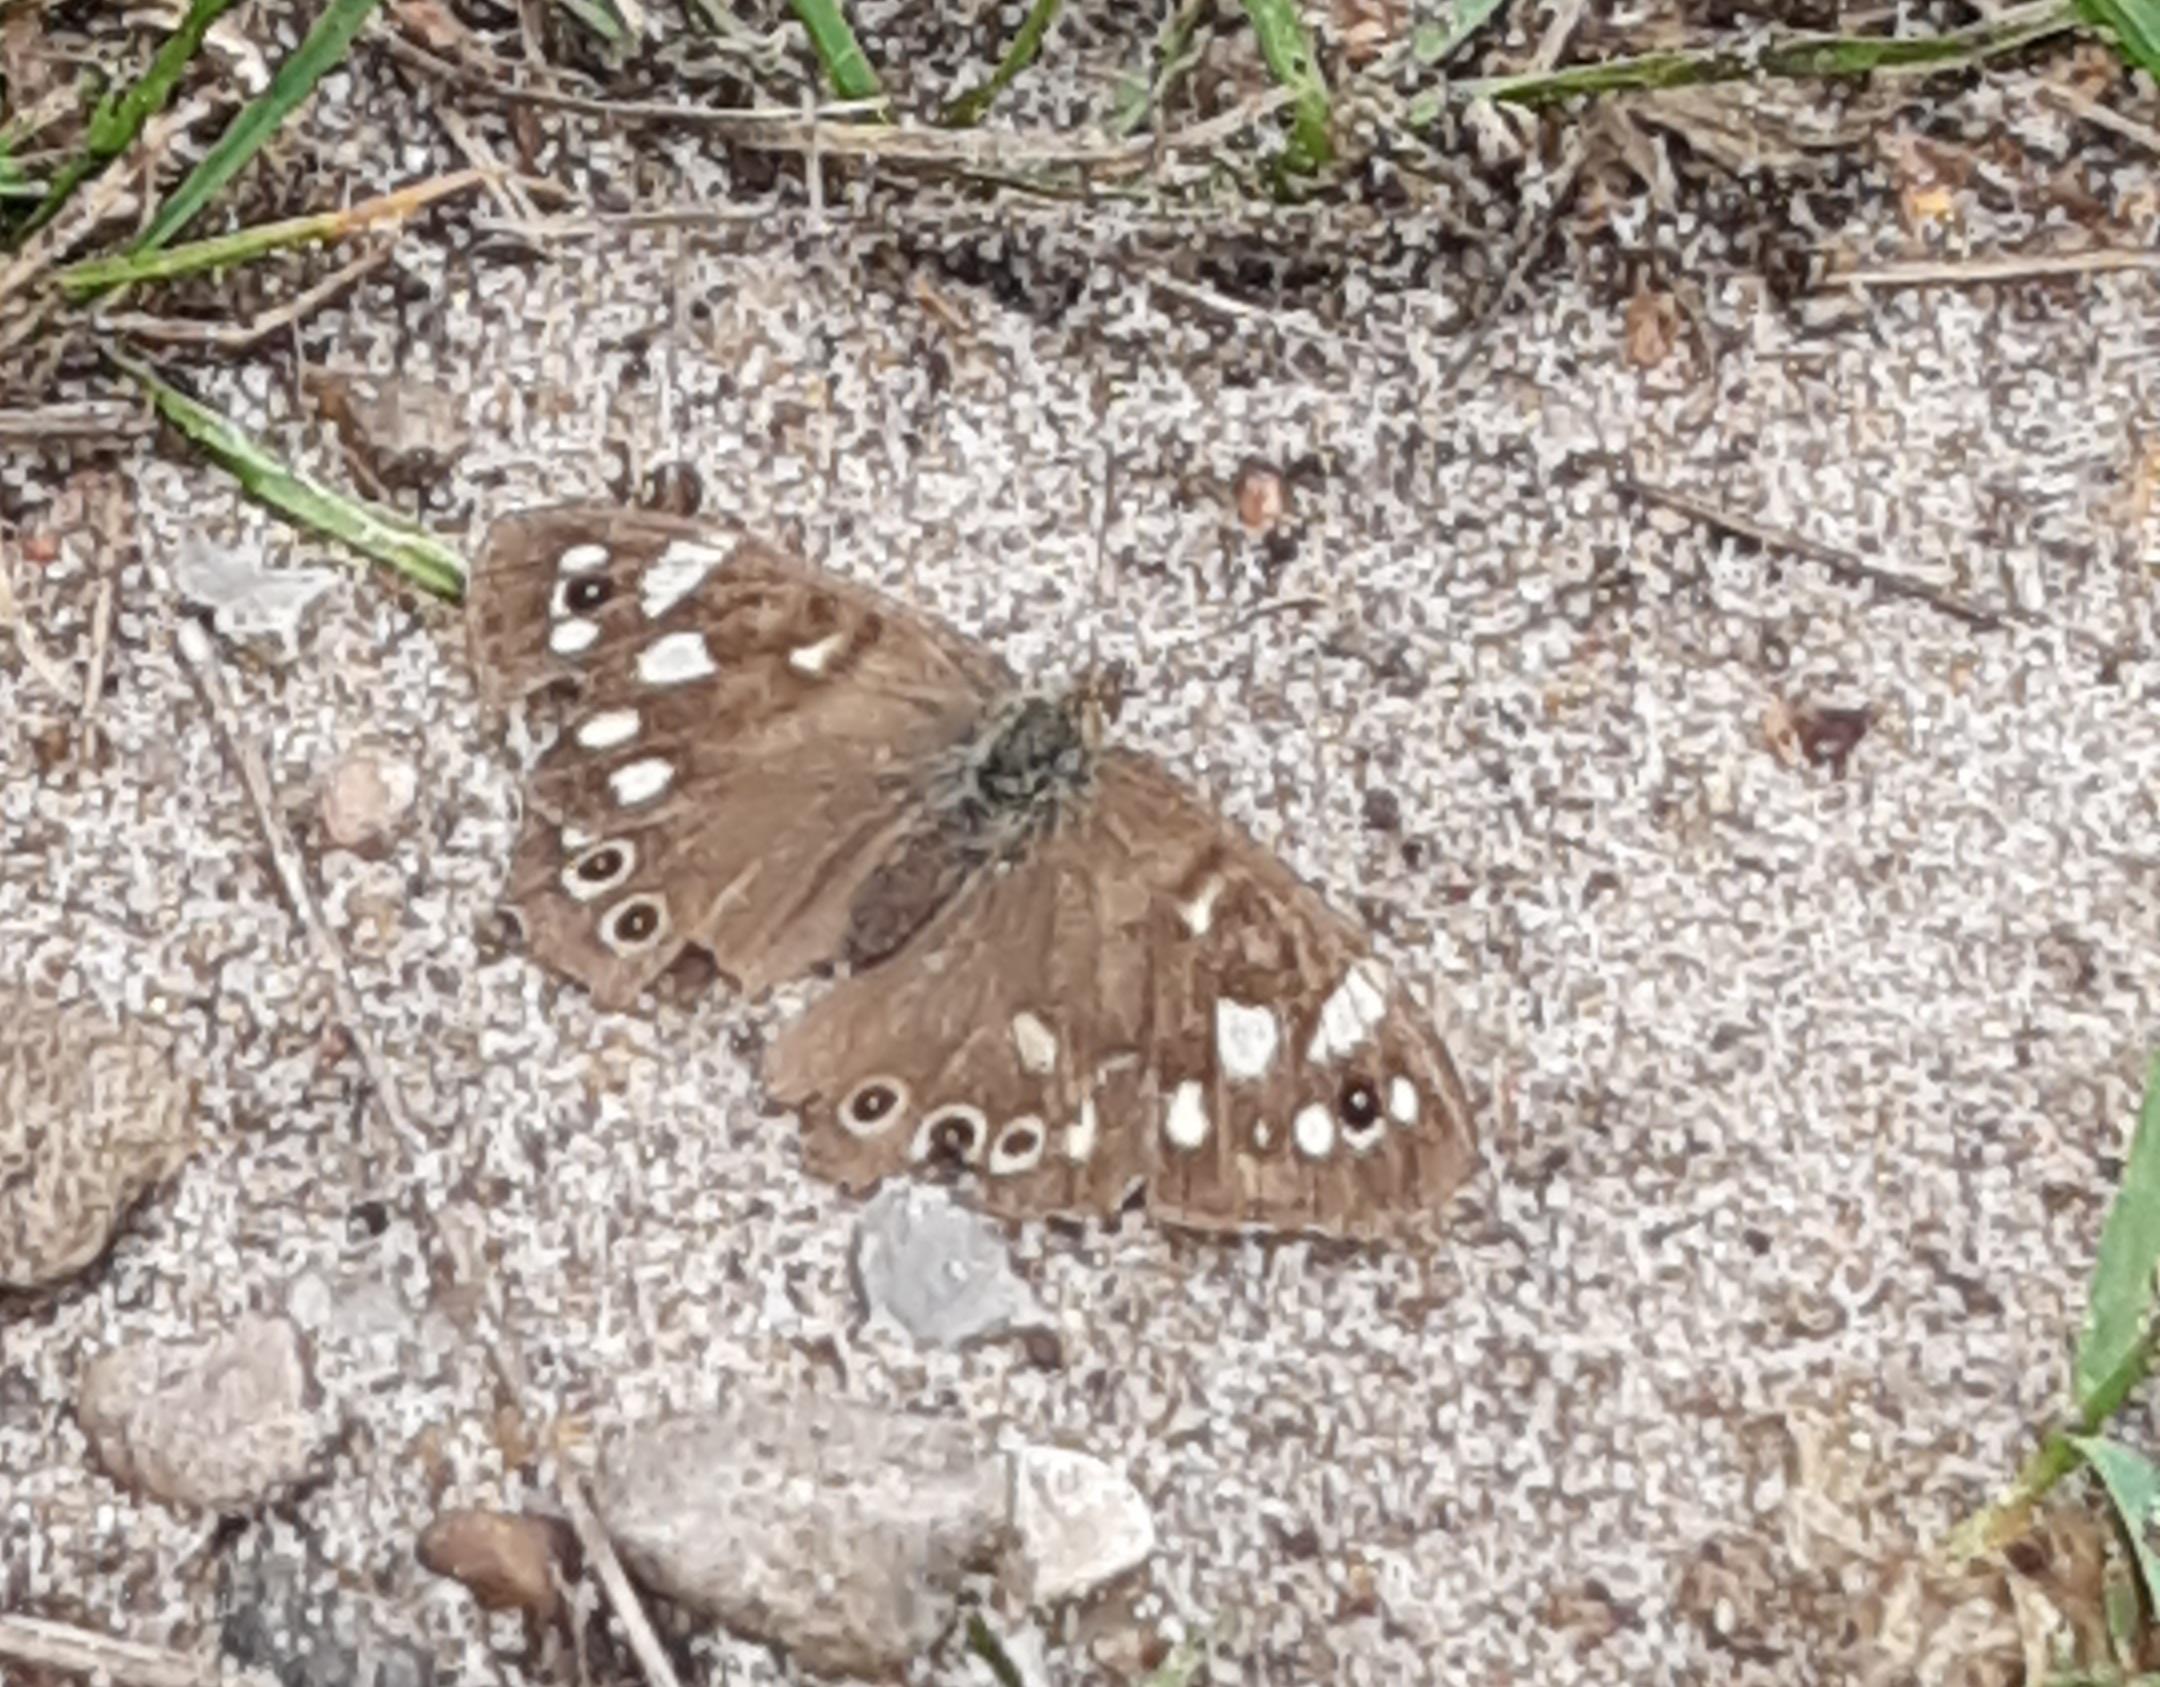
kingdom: Animalia
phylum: Arthropoda
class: Insecta
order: Lepidoptera
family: Nymphalidae
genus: Pararge
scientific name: Pararge aegeria
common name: Skovrandøje
